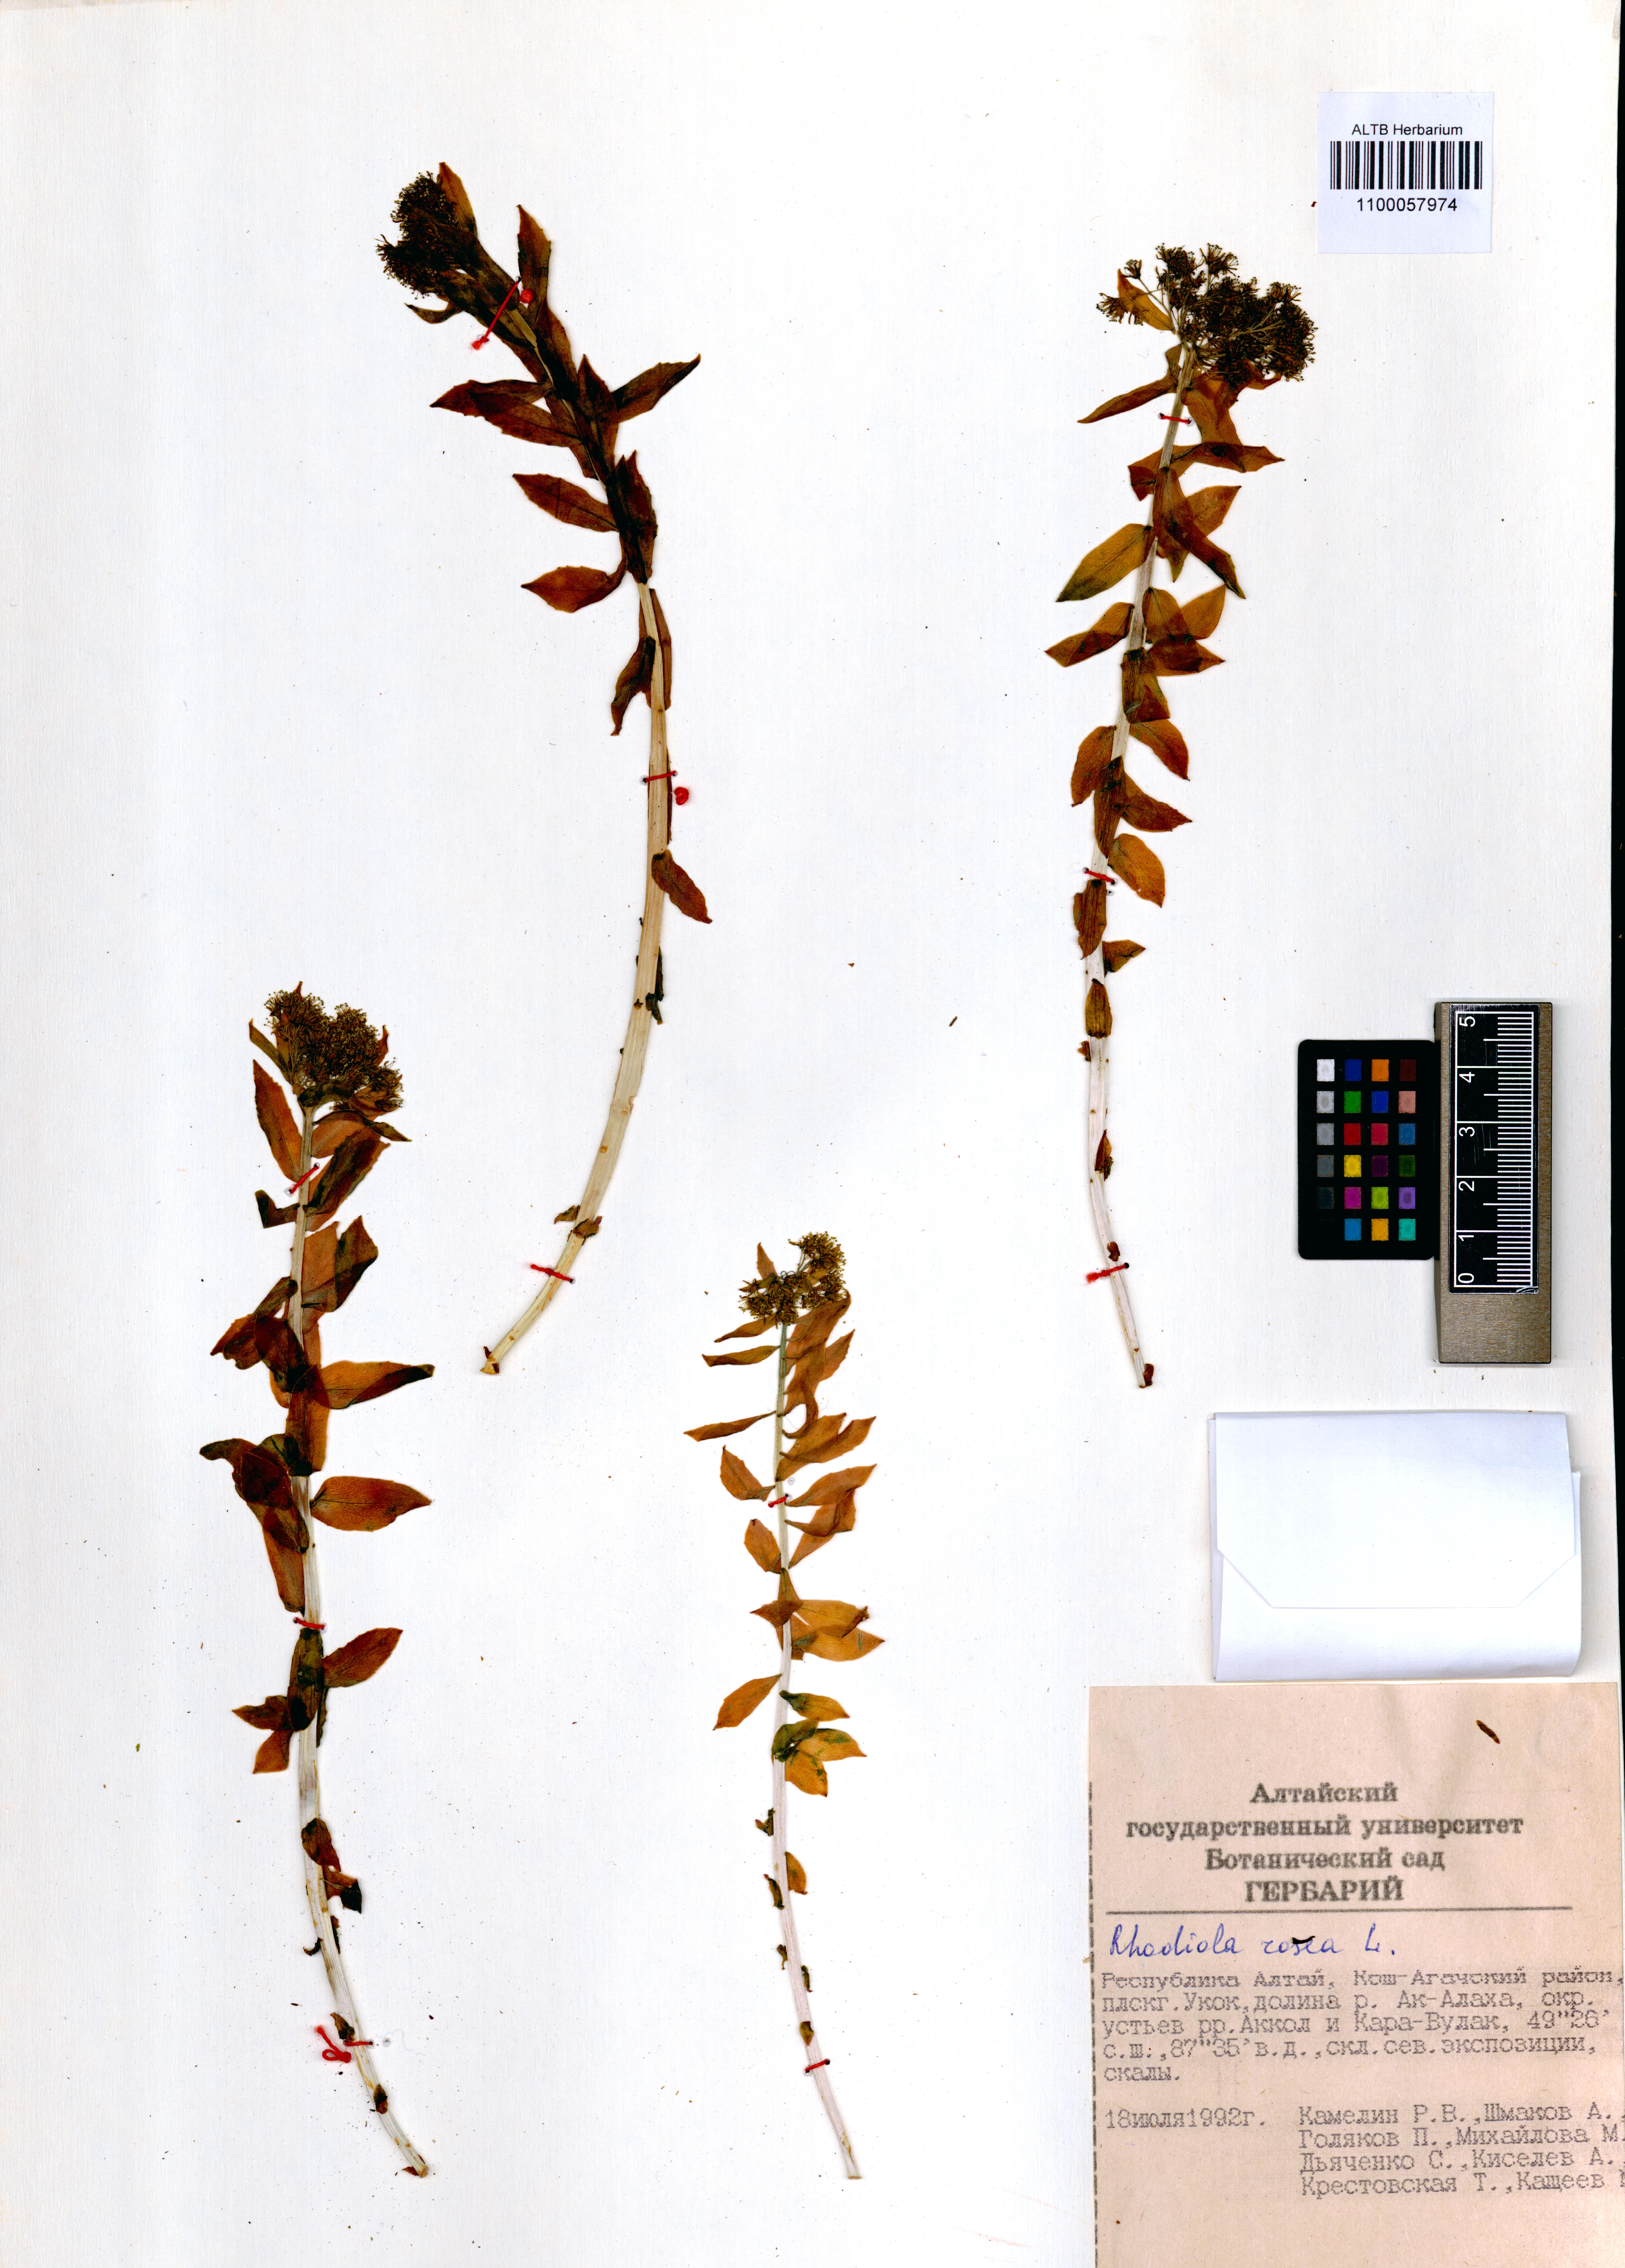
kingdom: Plantae
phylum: Tracheophyta
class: Magnoliopsida
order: Saxifragales
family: Crassulaceae
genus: Rhodiola
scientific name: Rhodiola rosea
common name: Roseroot
